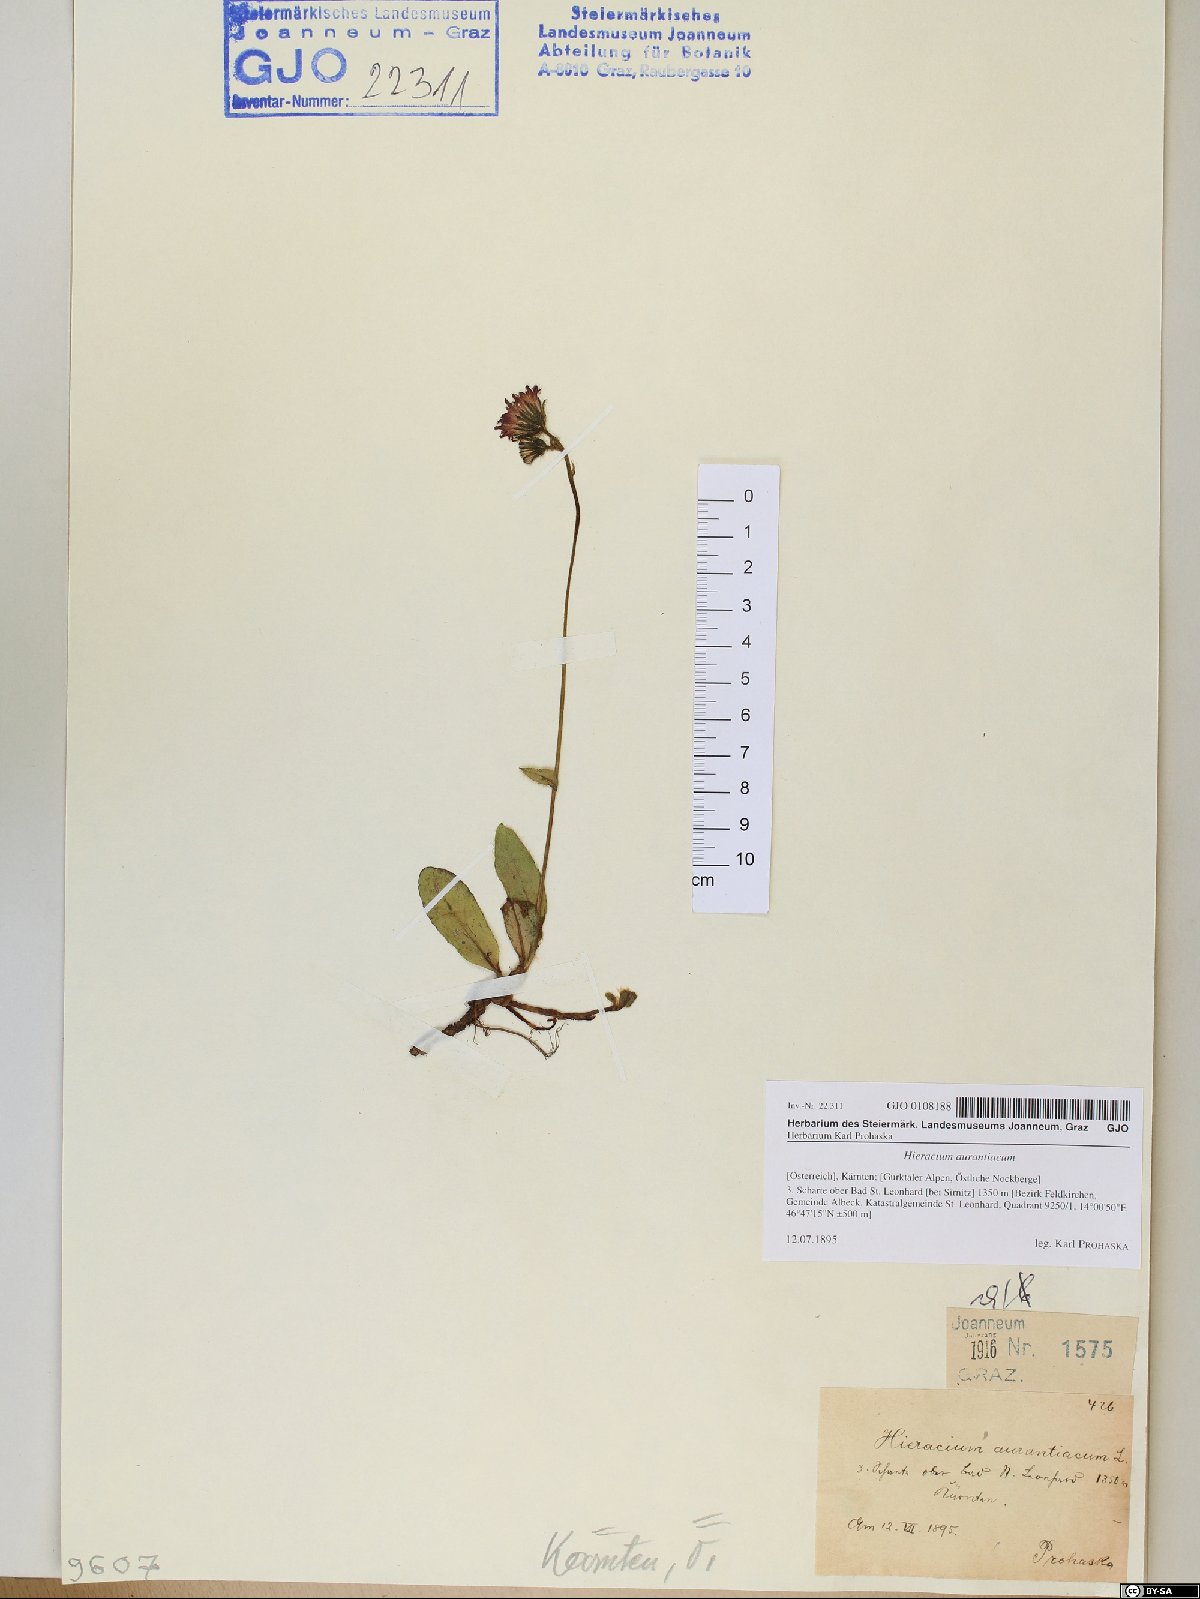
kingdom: Plantae
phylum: Tracheophyta
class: Magnoliopsida
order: Asterales
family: Asteraceae
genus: Pilosella
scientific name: Pilosella aurantiaca
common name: Fox-and-cubs
